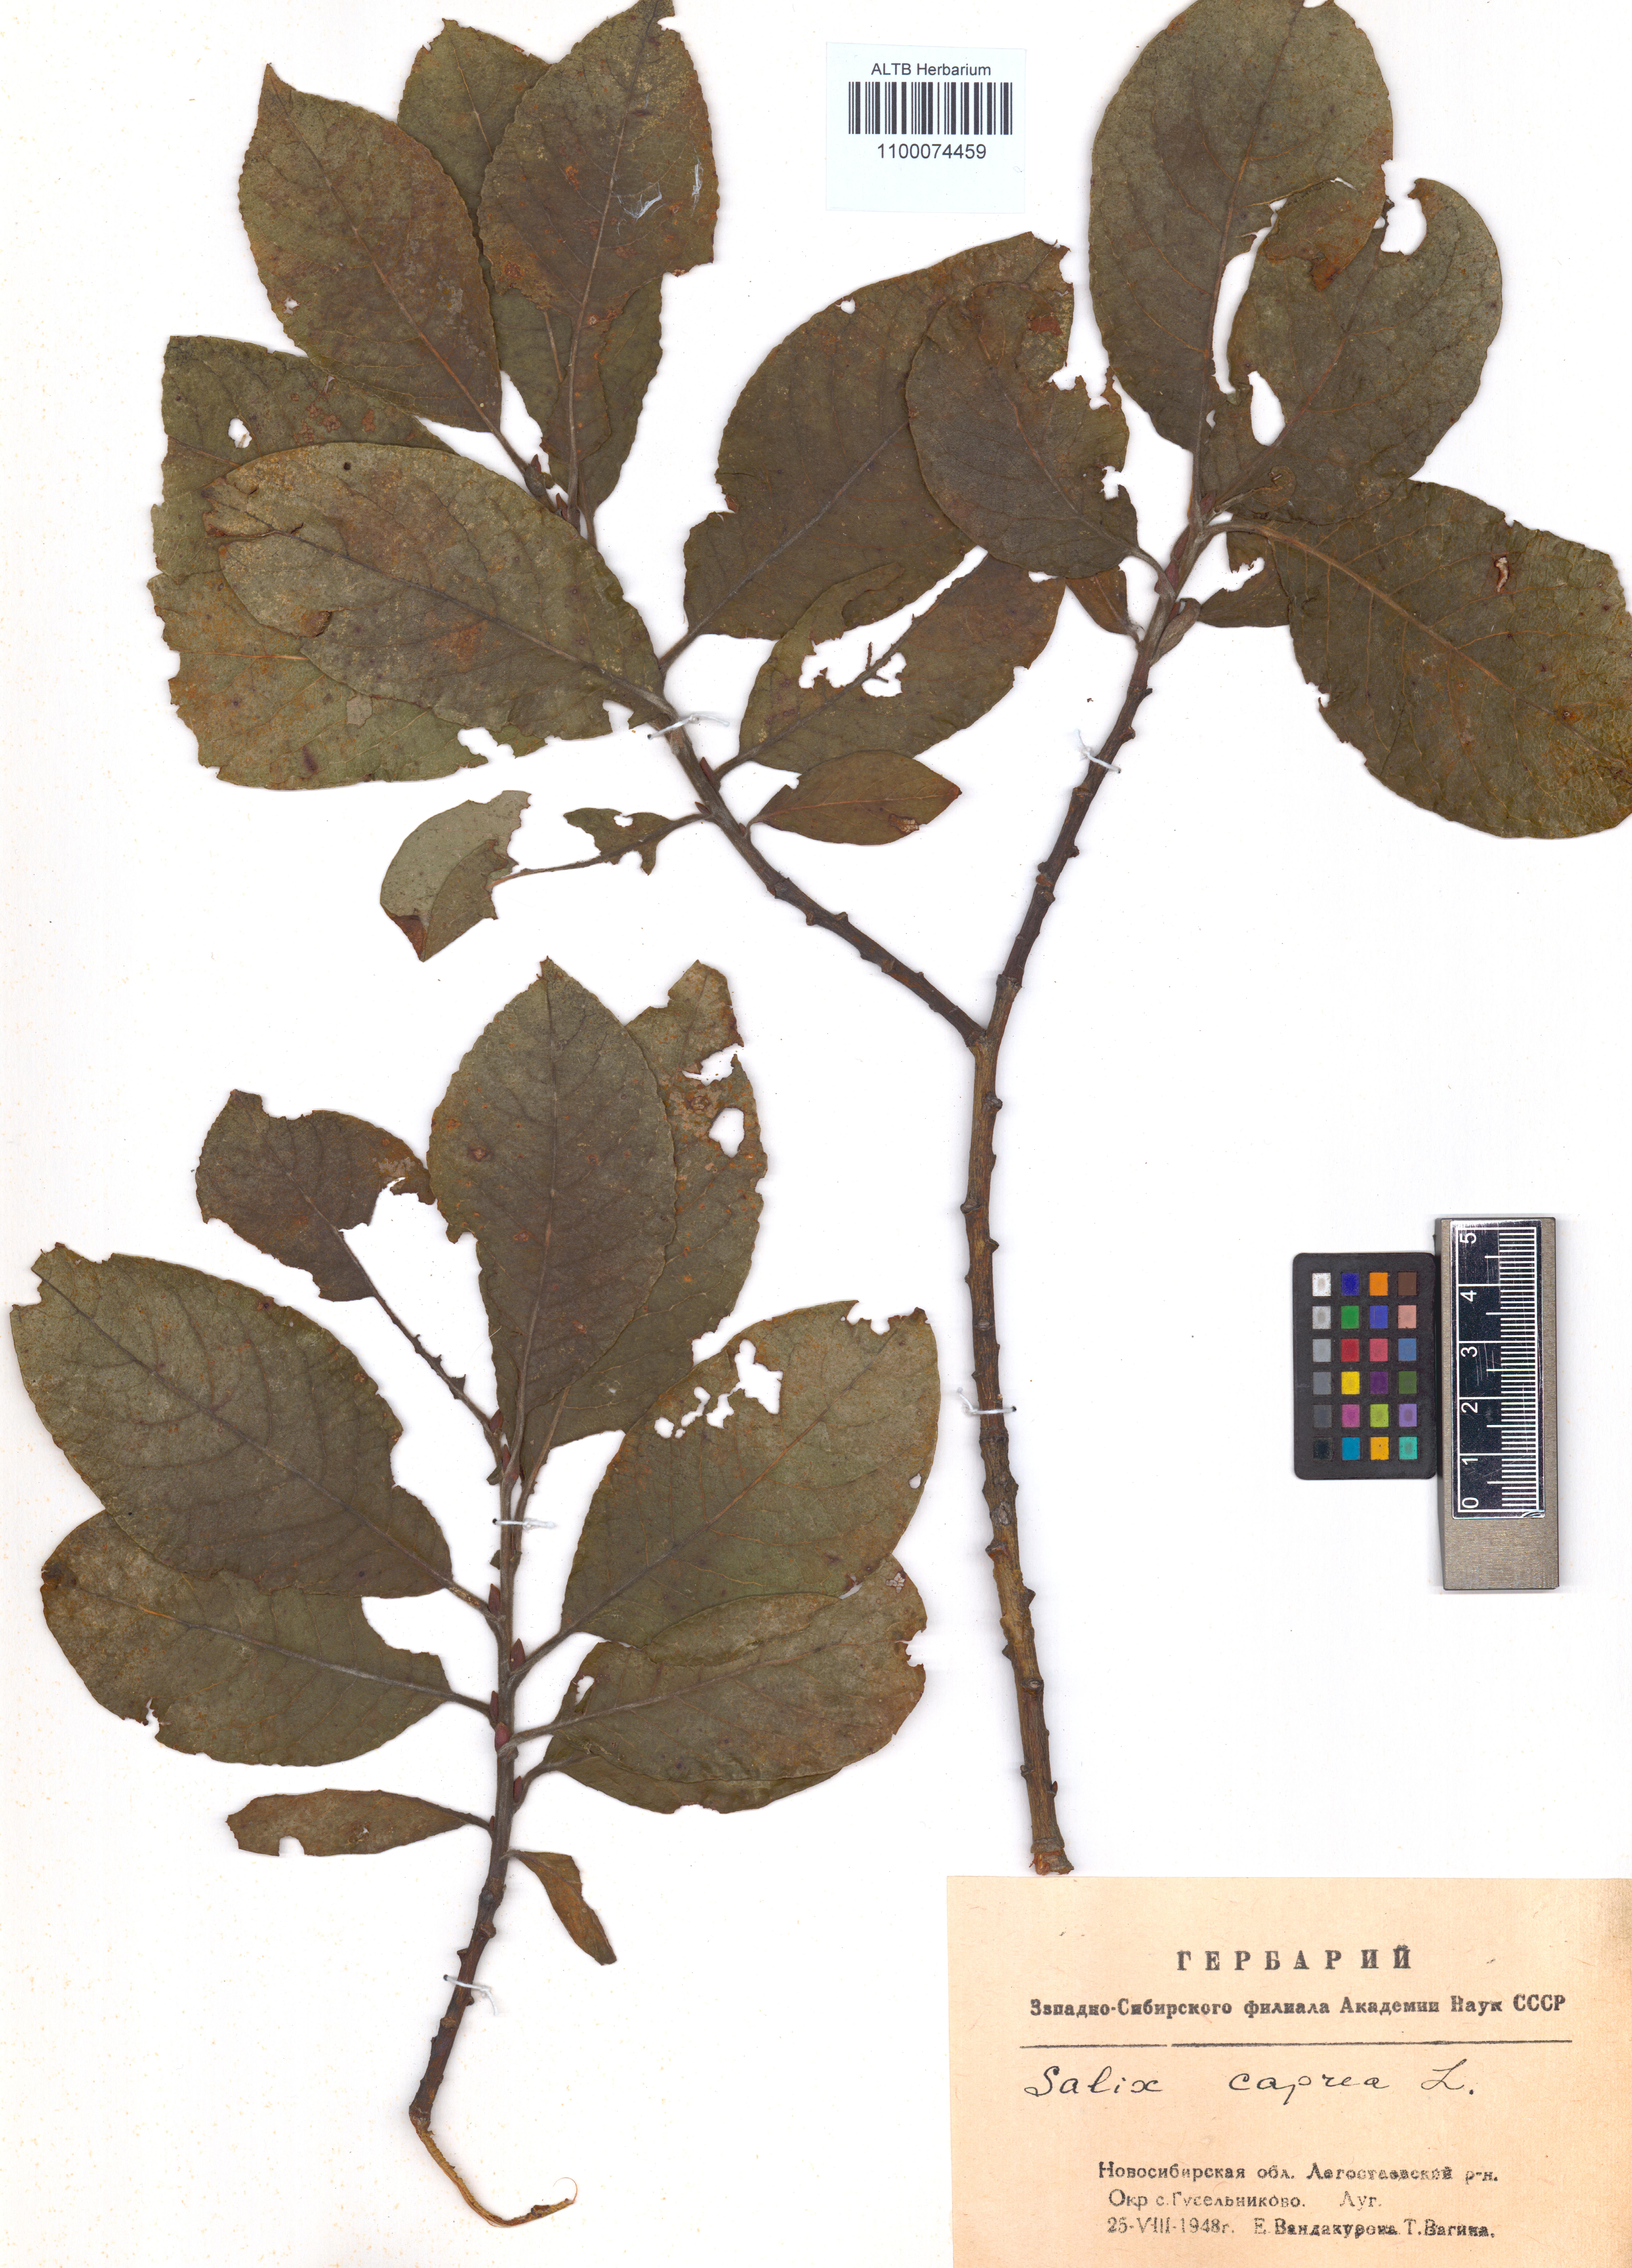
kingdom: Plantae
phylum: Tracheophyta
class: Magnoliopsida
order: Malpighiales
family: Salicaceae
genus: Salix
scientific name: Salix caprea
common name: Goat willow
